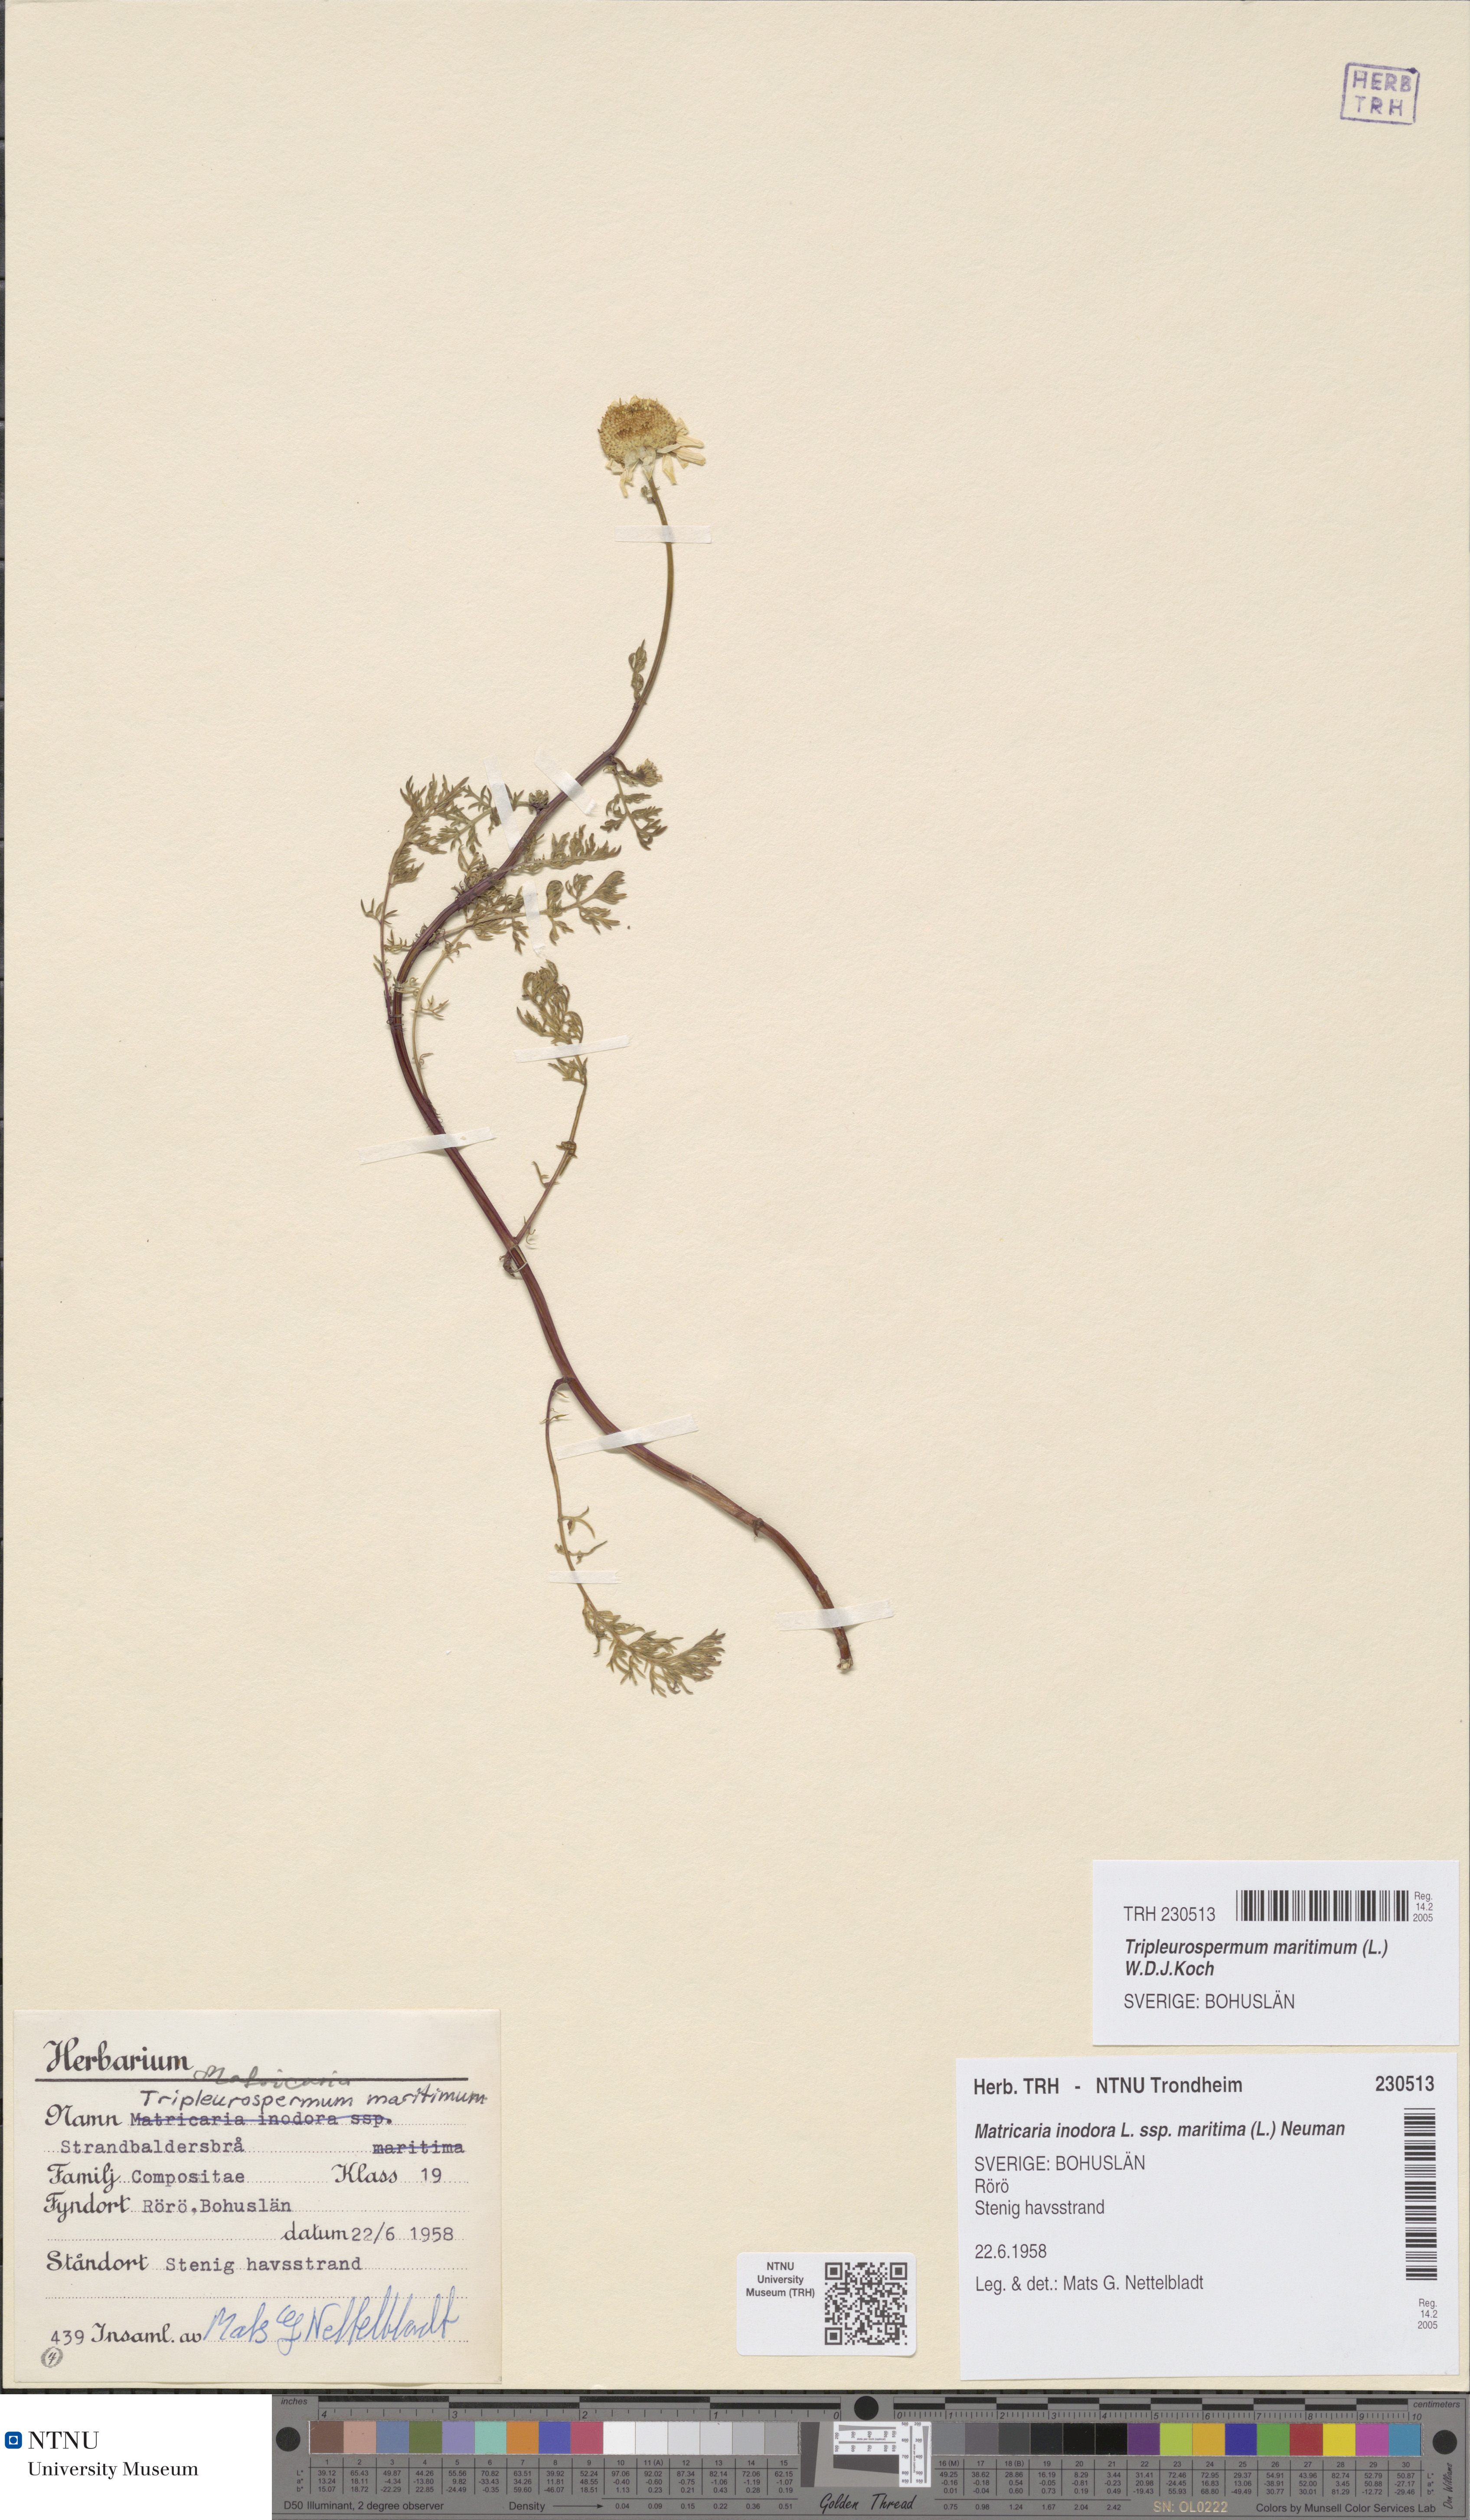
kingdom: Plantae
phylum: Tracheophyta
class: Magnoliopsida
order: Asterales
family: Asteraceae
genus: Tripleurospermum
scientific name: Tripleurospermum maritimum
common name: Sea mayweed
